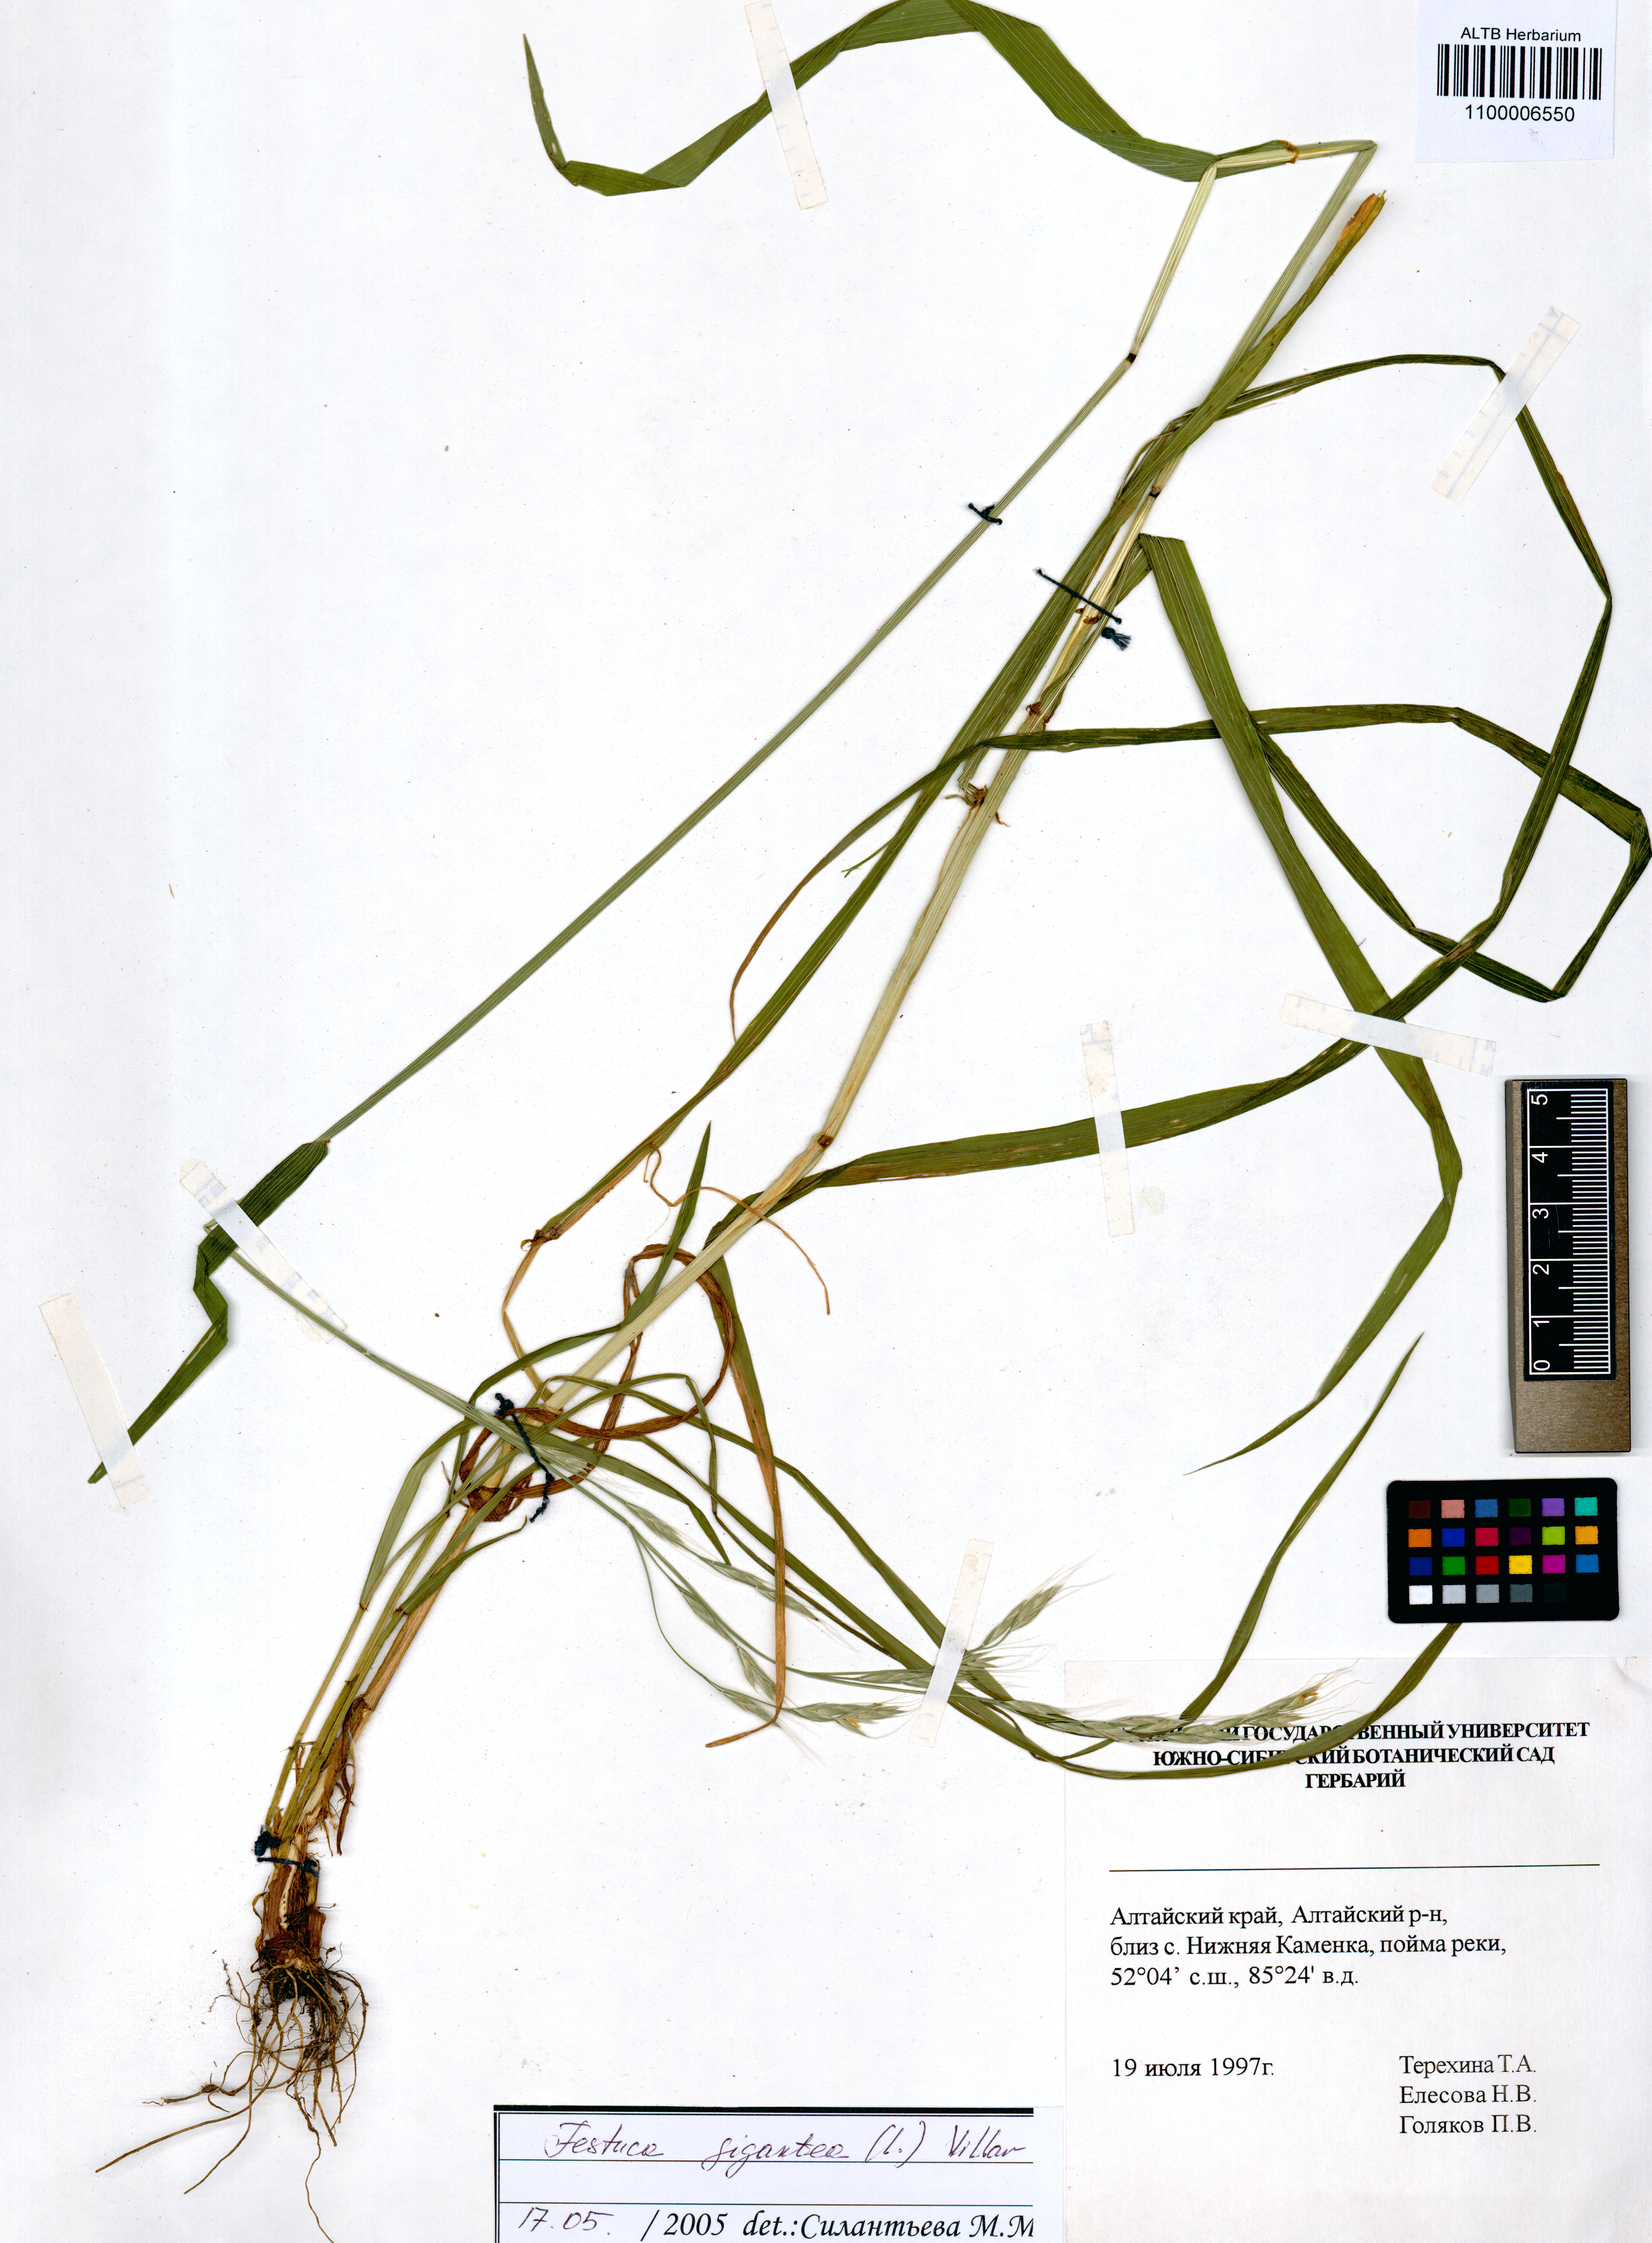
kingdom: Plantae
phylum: Tracheophyta
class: Liliopsida
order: Poales
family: Poaceae
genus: Lolium
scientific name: Lolium giganteum
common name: Giant fescue
